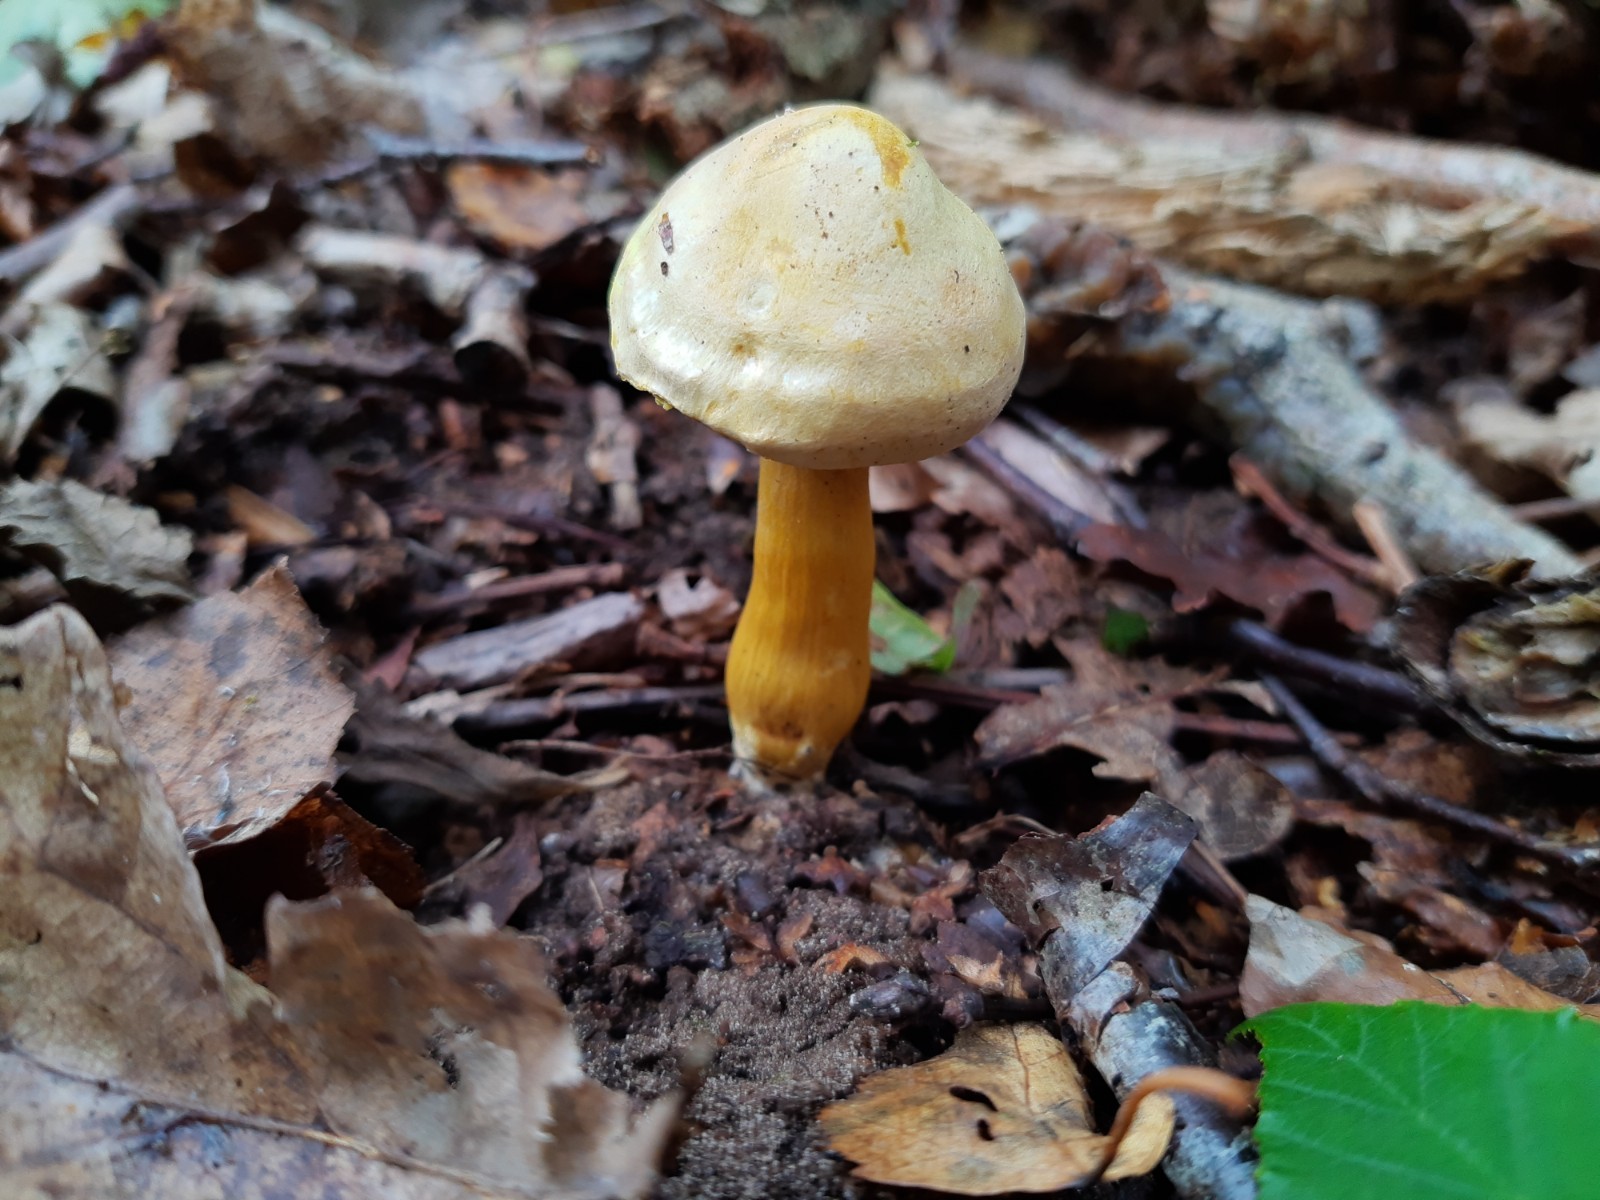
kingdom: Fungi
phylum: Basidiomycota
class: Agaricomycetes
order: Agaricales
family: Tricholomataceae
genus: Tricholoma
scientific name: Tricholoma sulphureum
